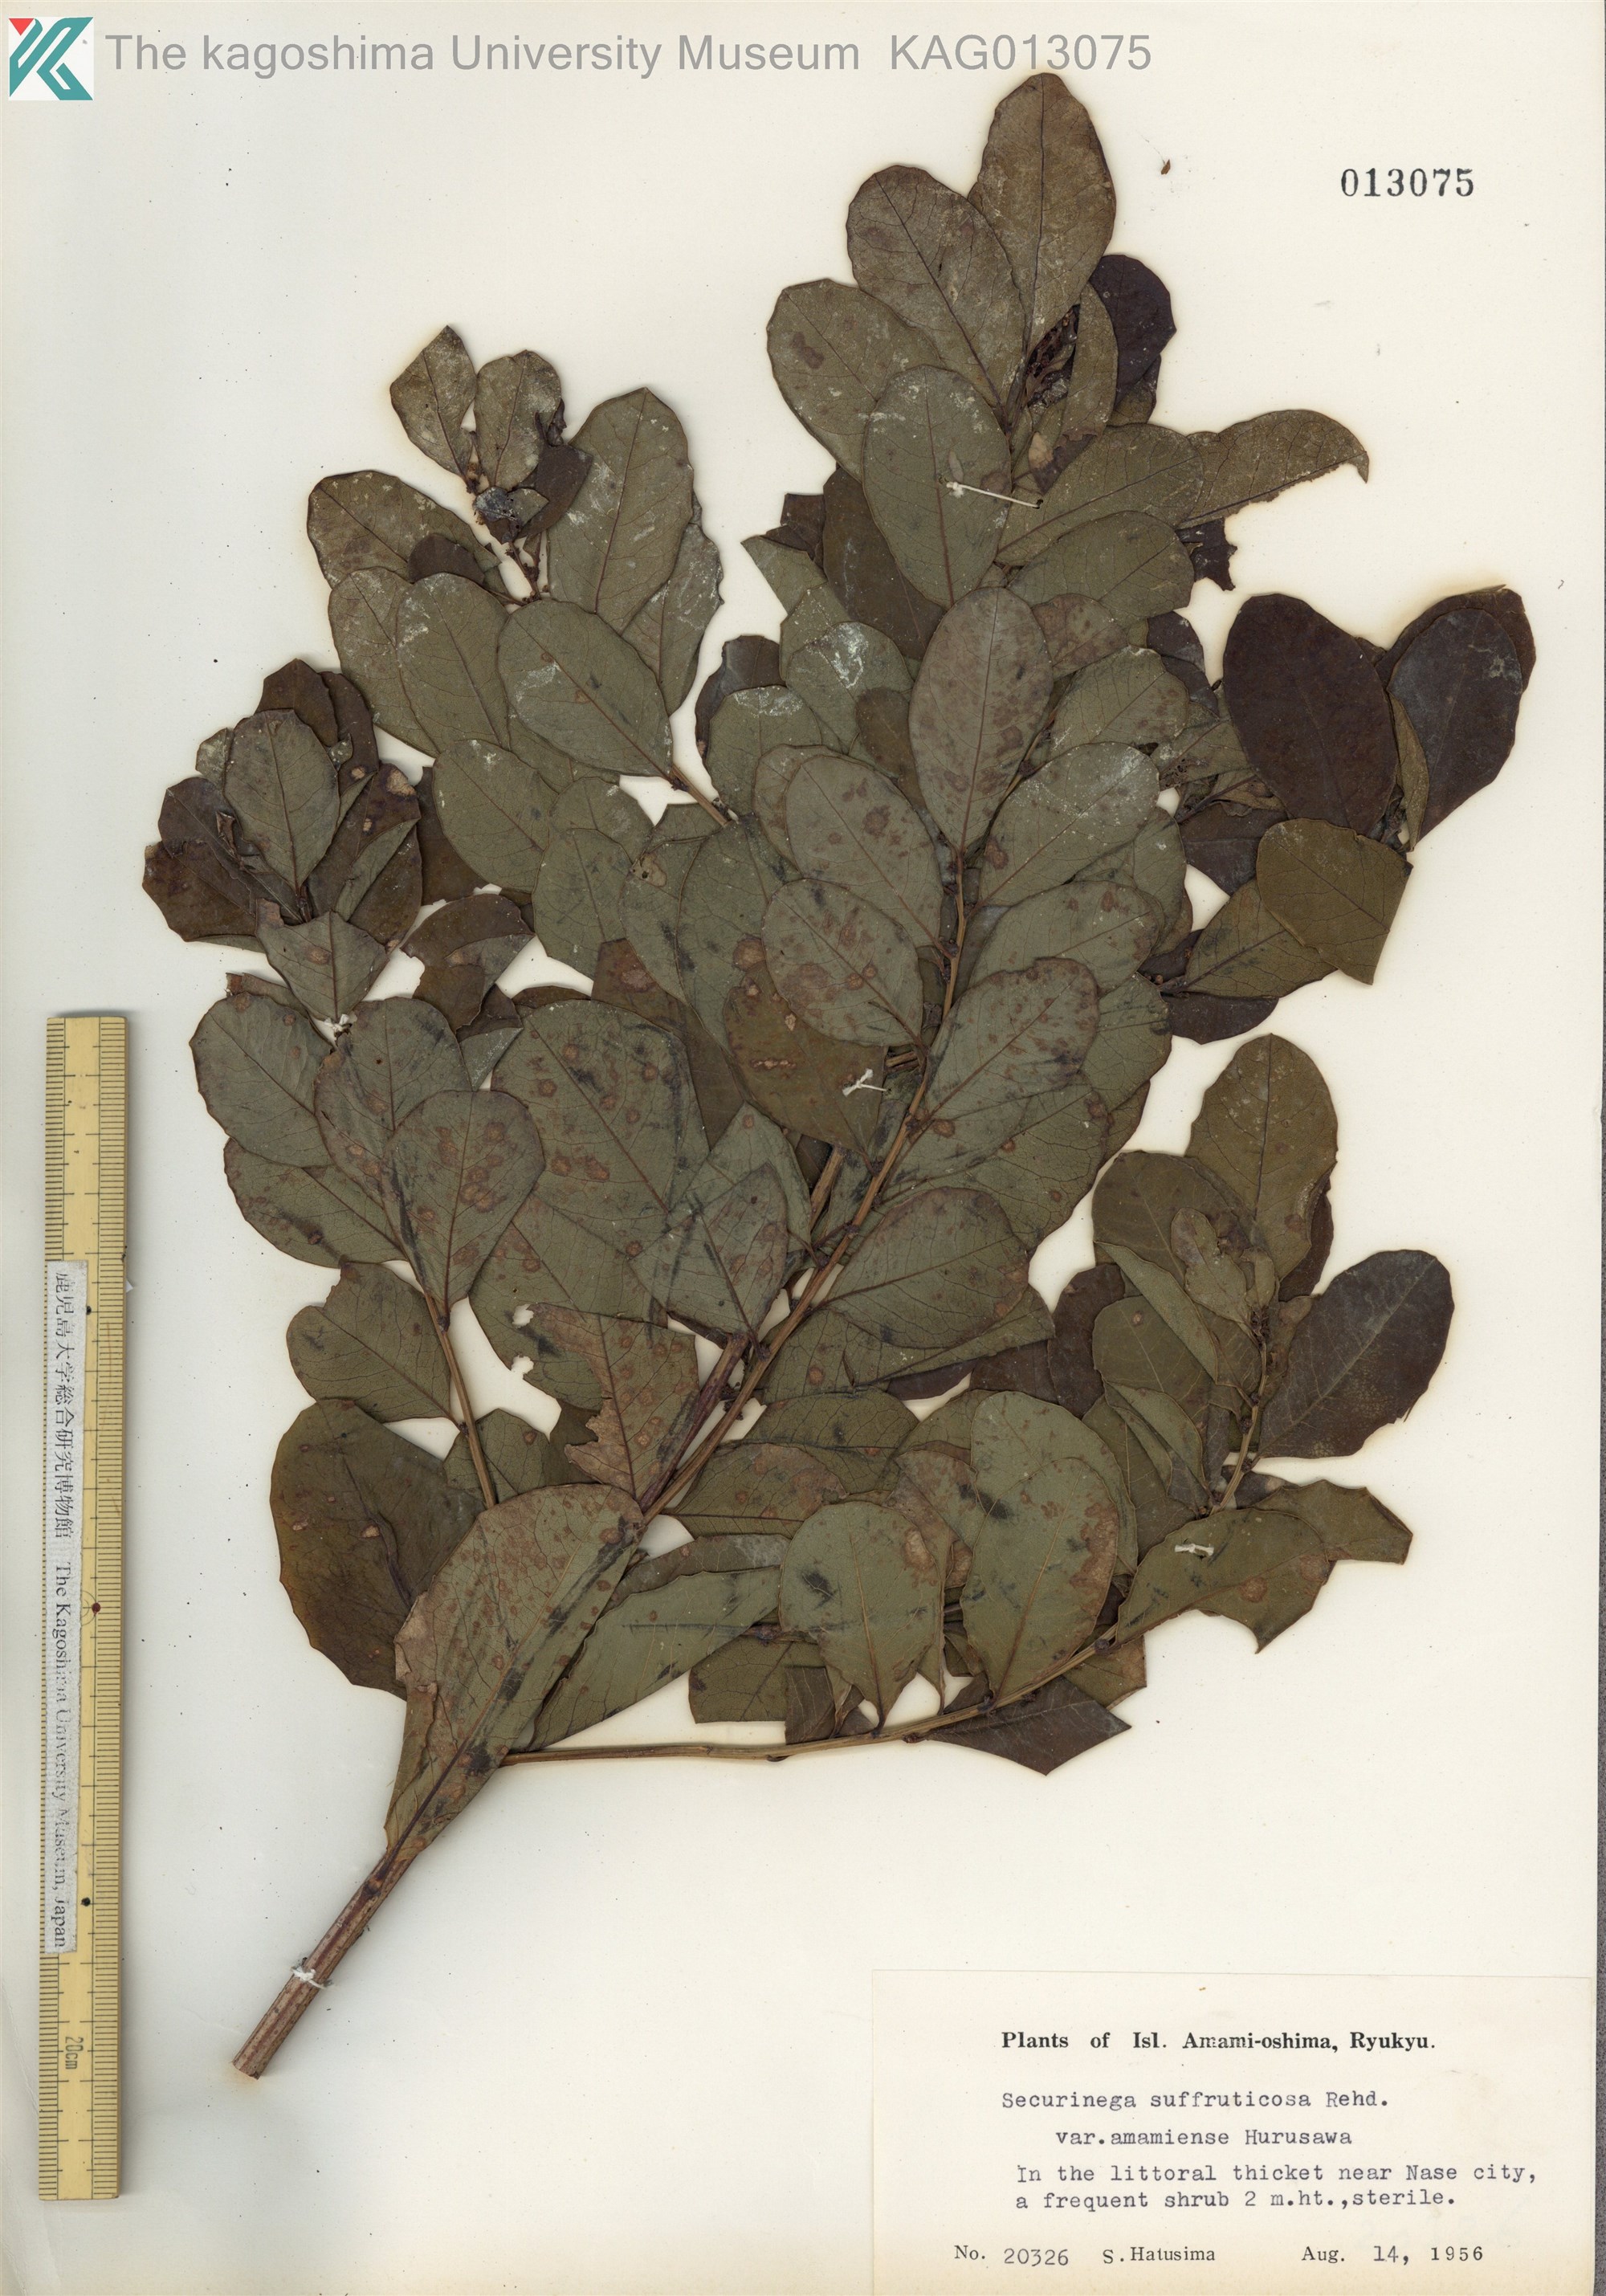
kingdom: Plantae
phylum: Tracheophyta
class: Magnoliopsida
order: Malpighiales
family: Phyllanthaceae
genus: Flueggea
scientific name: Flueggea suffruticosa
